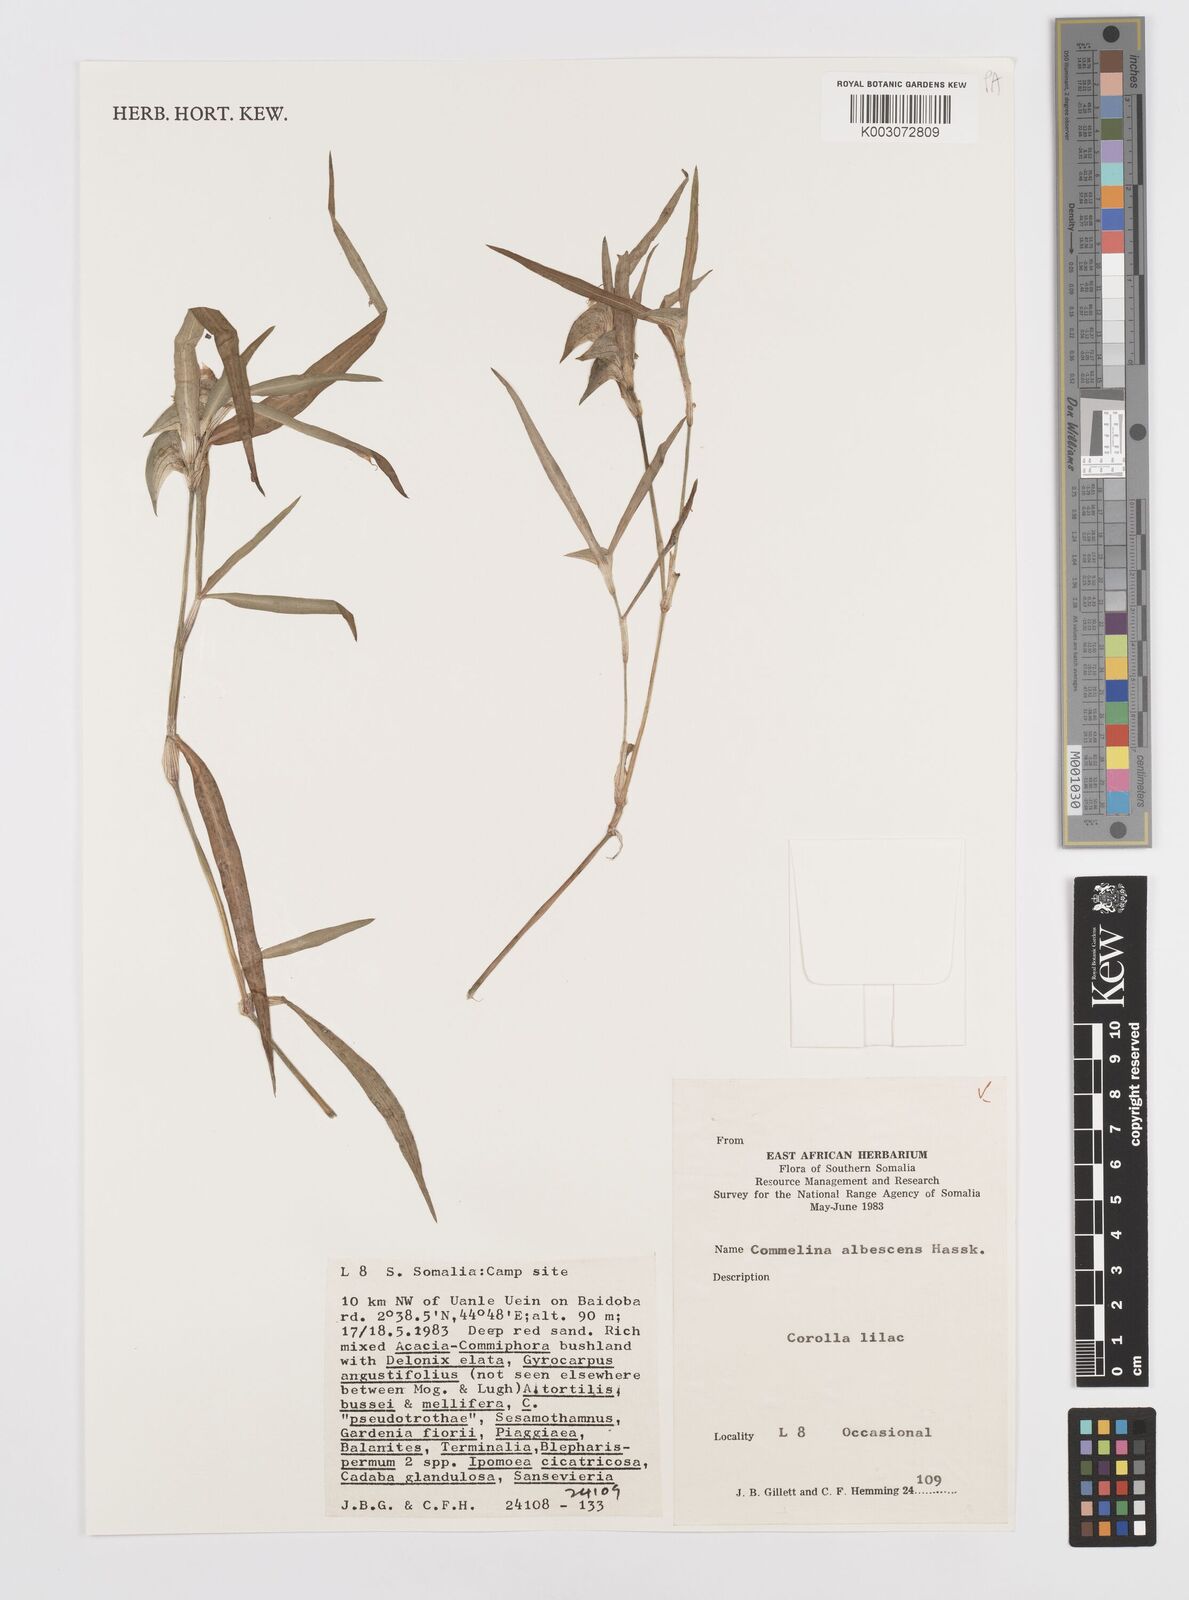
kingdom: Plantae
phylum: Tracheophyta
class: Liliopsida
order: Commelinales
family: Commelinaceae
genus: Commelina
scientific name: Commelina albescens
